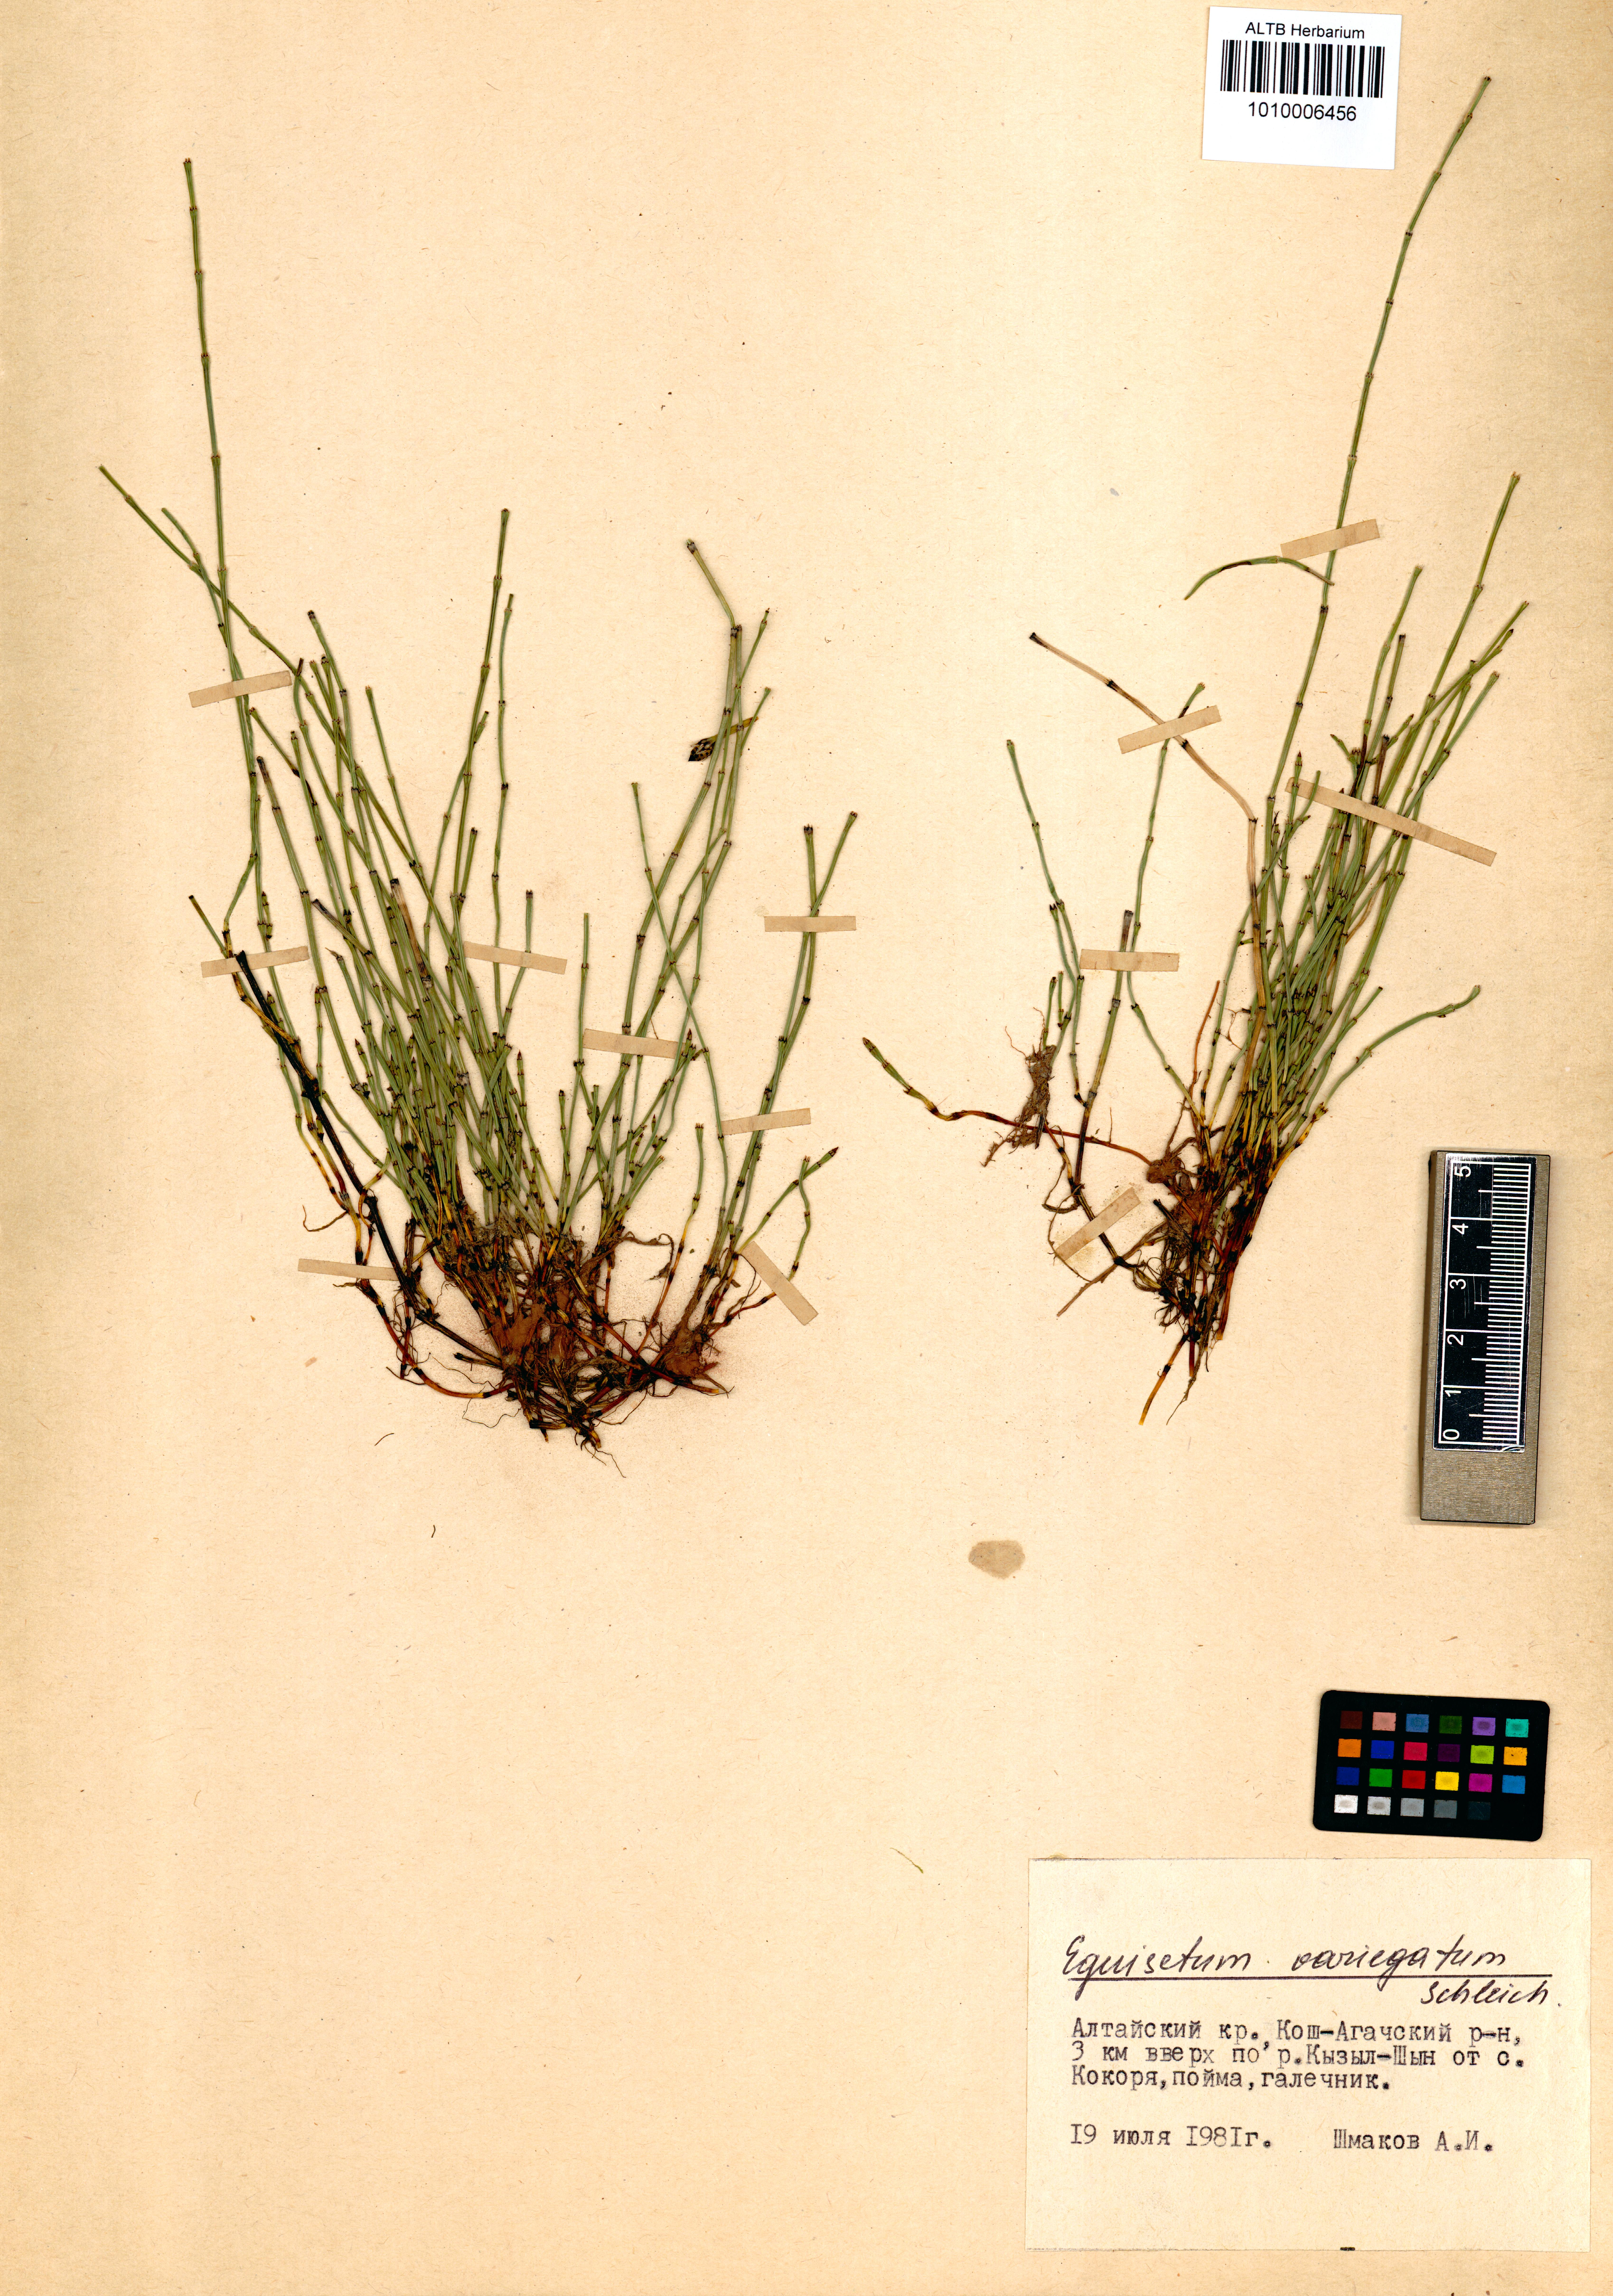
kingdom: Plantae
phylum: Tracheophyta
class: Polypodiopsida
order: Equisetales
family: Equisetaceae
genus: Equisetum
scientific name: Equisetum variegatum
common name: Variegated horsetail
